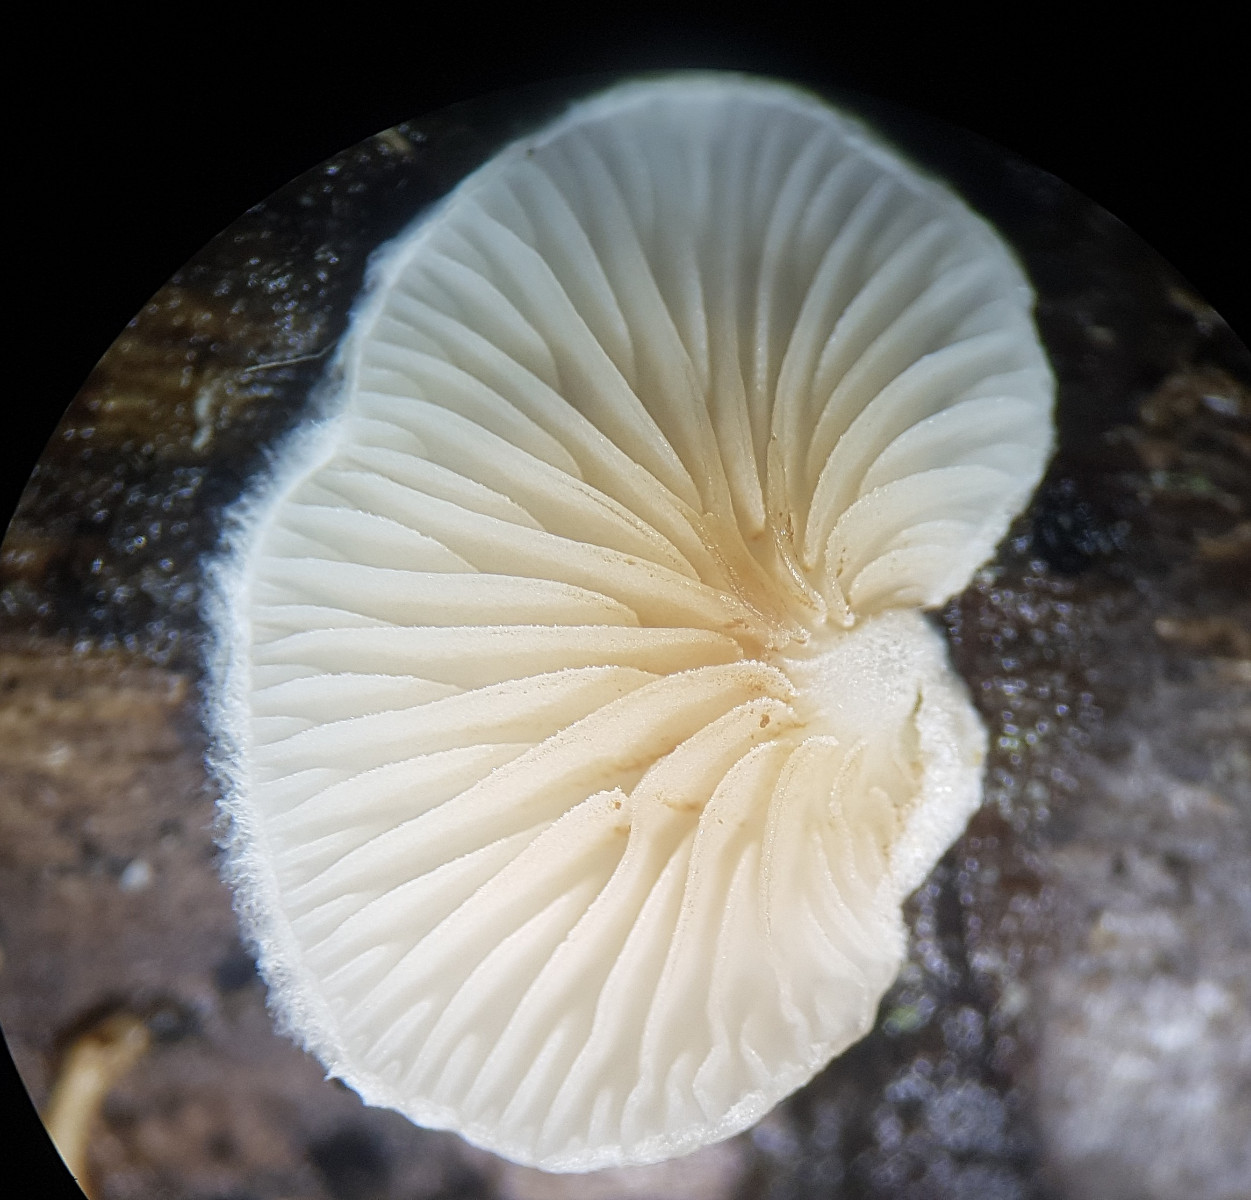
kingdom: Fungi
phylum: Basidiomycota
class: Agaricomycetes
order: Agaricales
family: Crepidotaceae
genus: Crepidotus
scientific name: Crepidotus variabilis
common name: forskelligformet muslingesvamp
